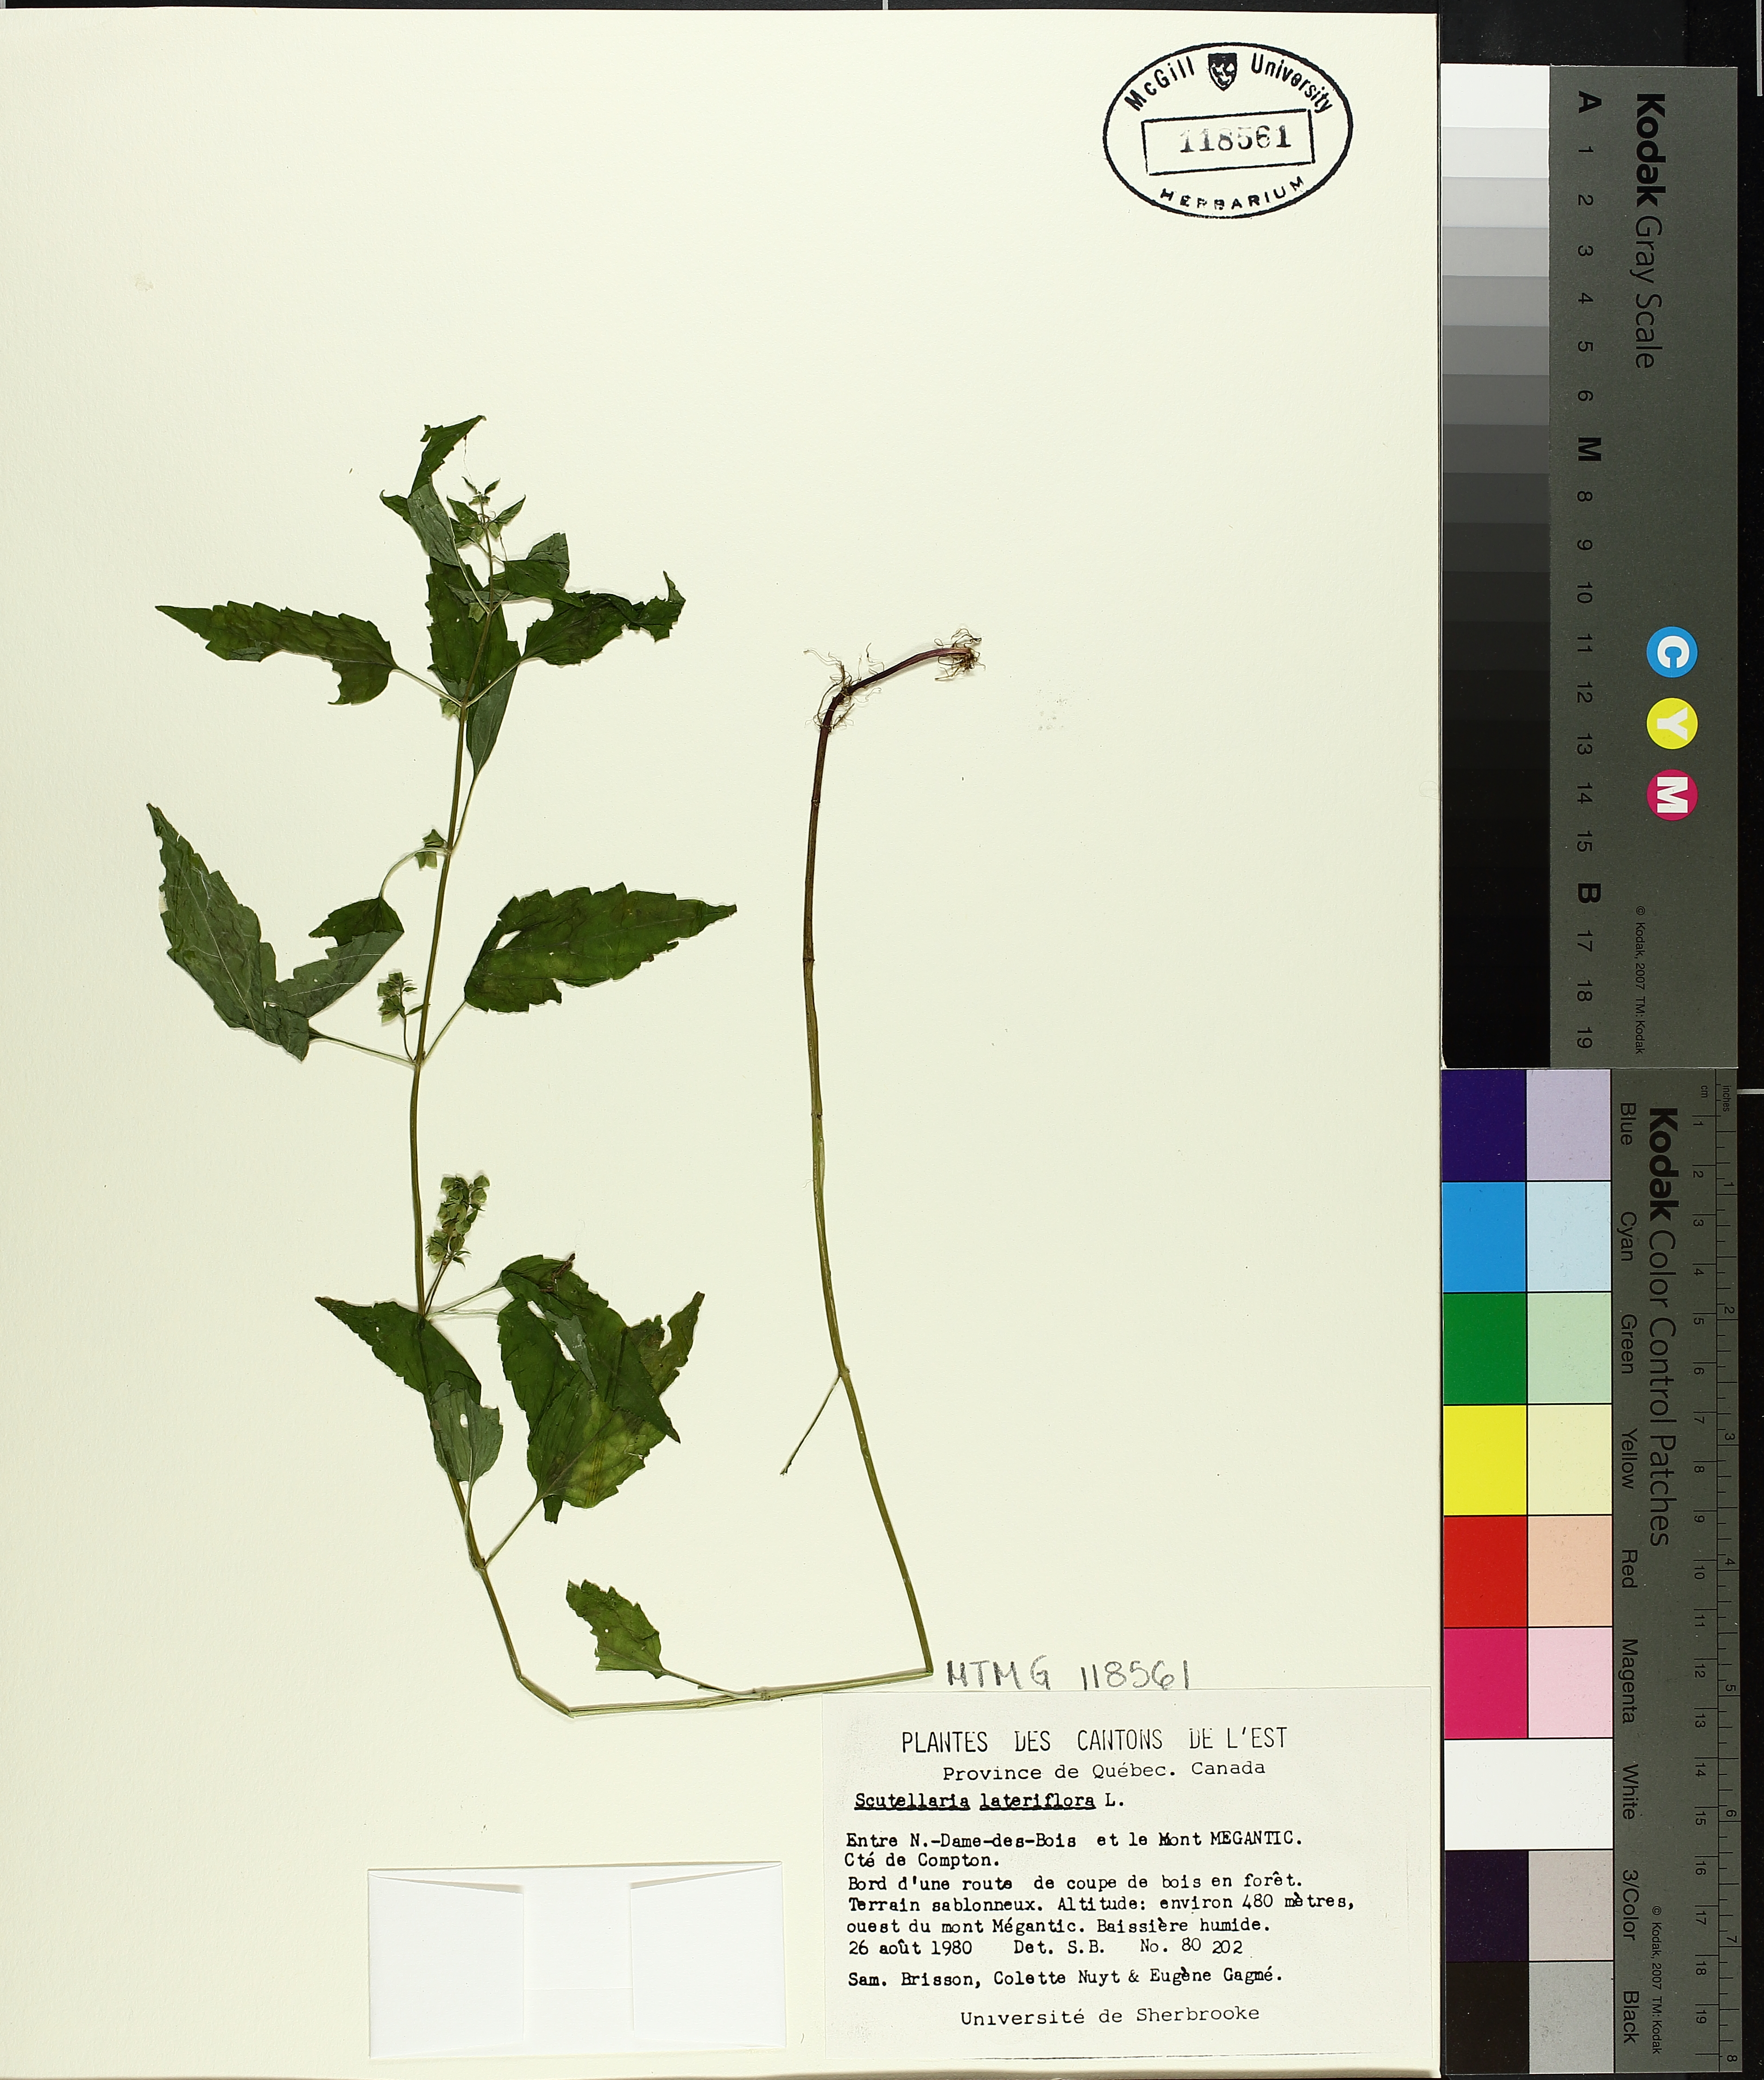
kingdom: Plantae
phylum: Tracheophyta
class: Magnoliopsida
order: Lamiales
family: Lamiaceae
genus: Scutellaria
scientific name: Scutellaria lateriflora
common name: Blue skullcap
